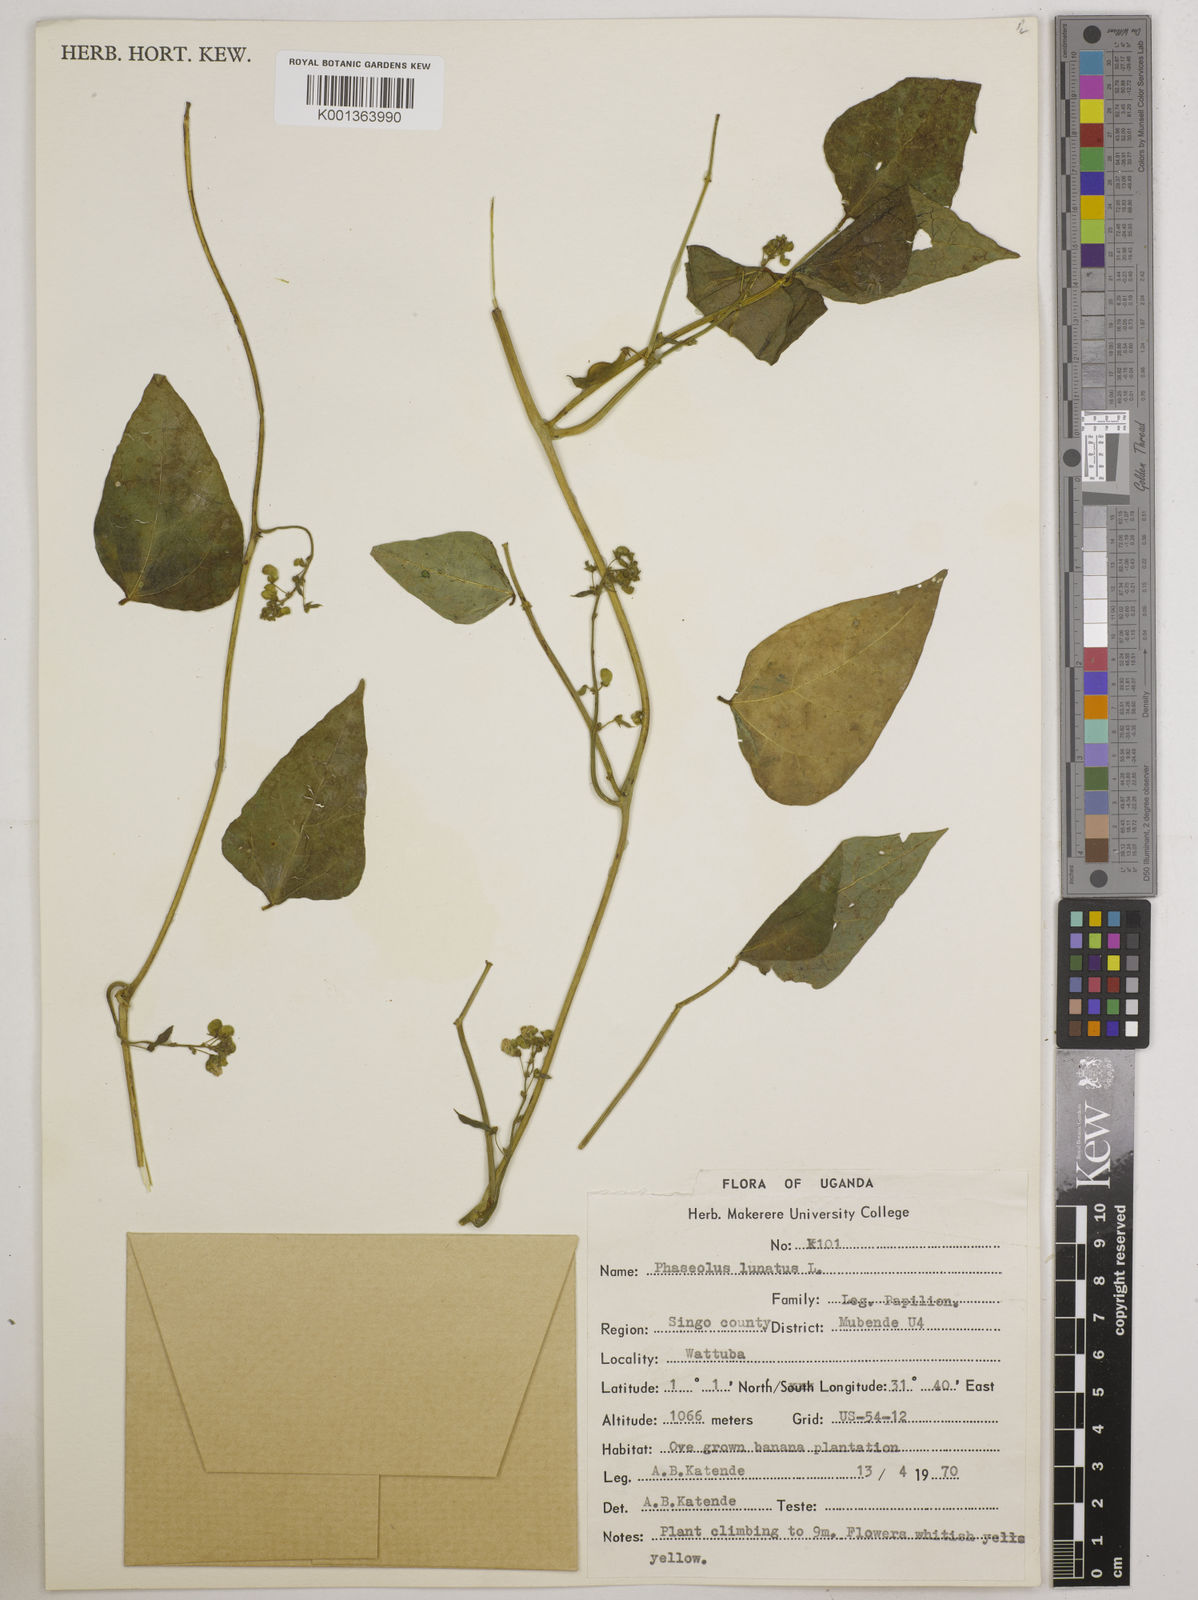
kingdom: Plantae
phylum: Tracheophyta
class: Magnoliopsida
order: Fabales
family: Fabaceae
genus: Phaseolus
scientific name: Phaseolus lunatus
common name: Sieva bean
